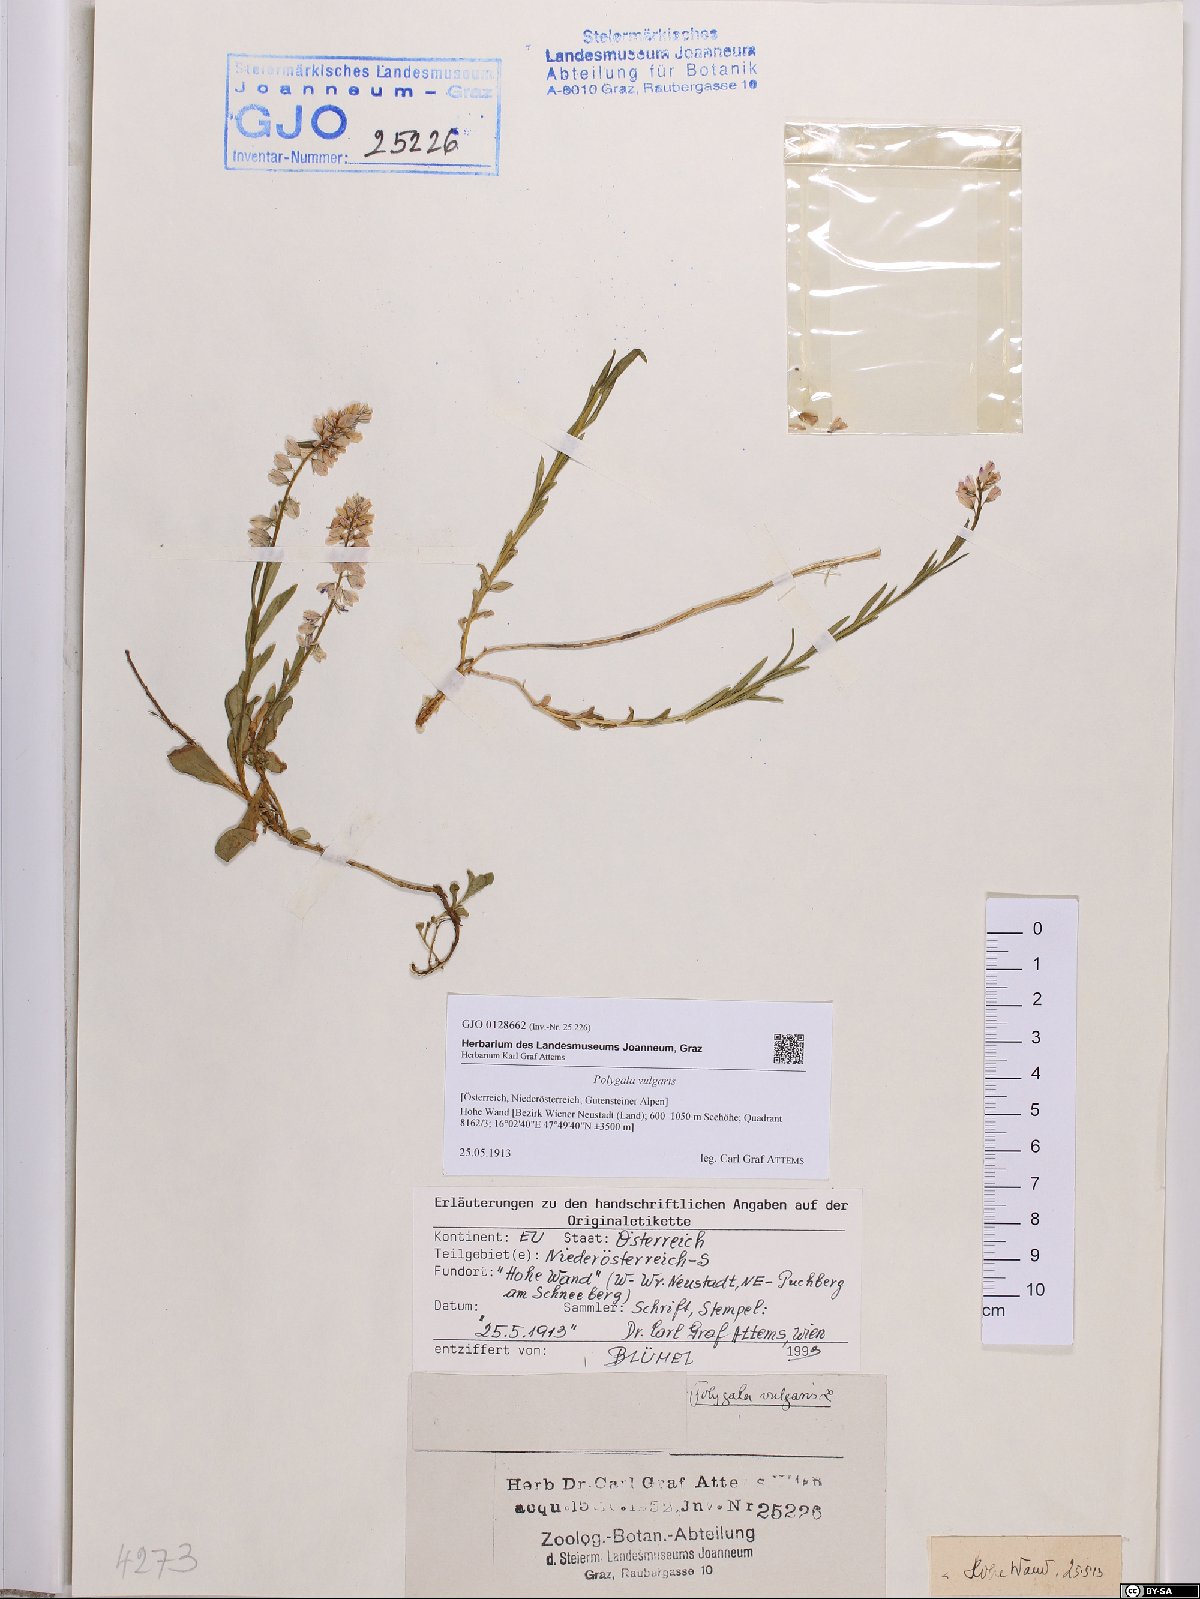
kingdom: Plantae
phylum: Tracheophyta
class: Magnoliopsida
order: Fabales
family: Polygalaceae
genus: Polygala
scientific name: Polygala vulgaris
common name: Common milkwort
